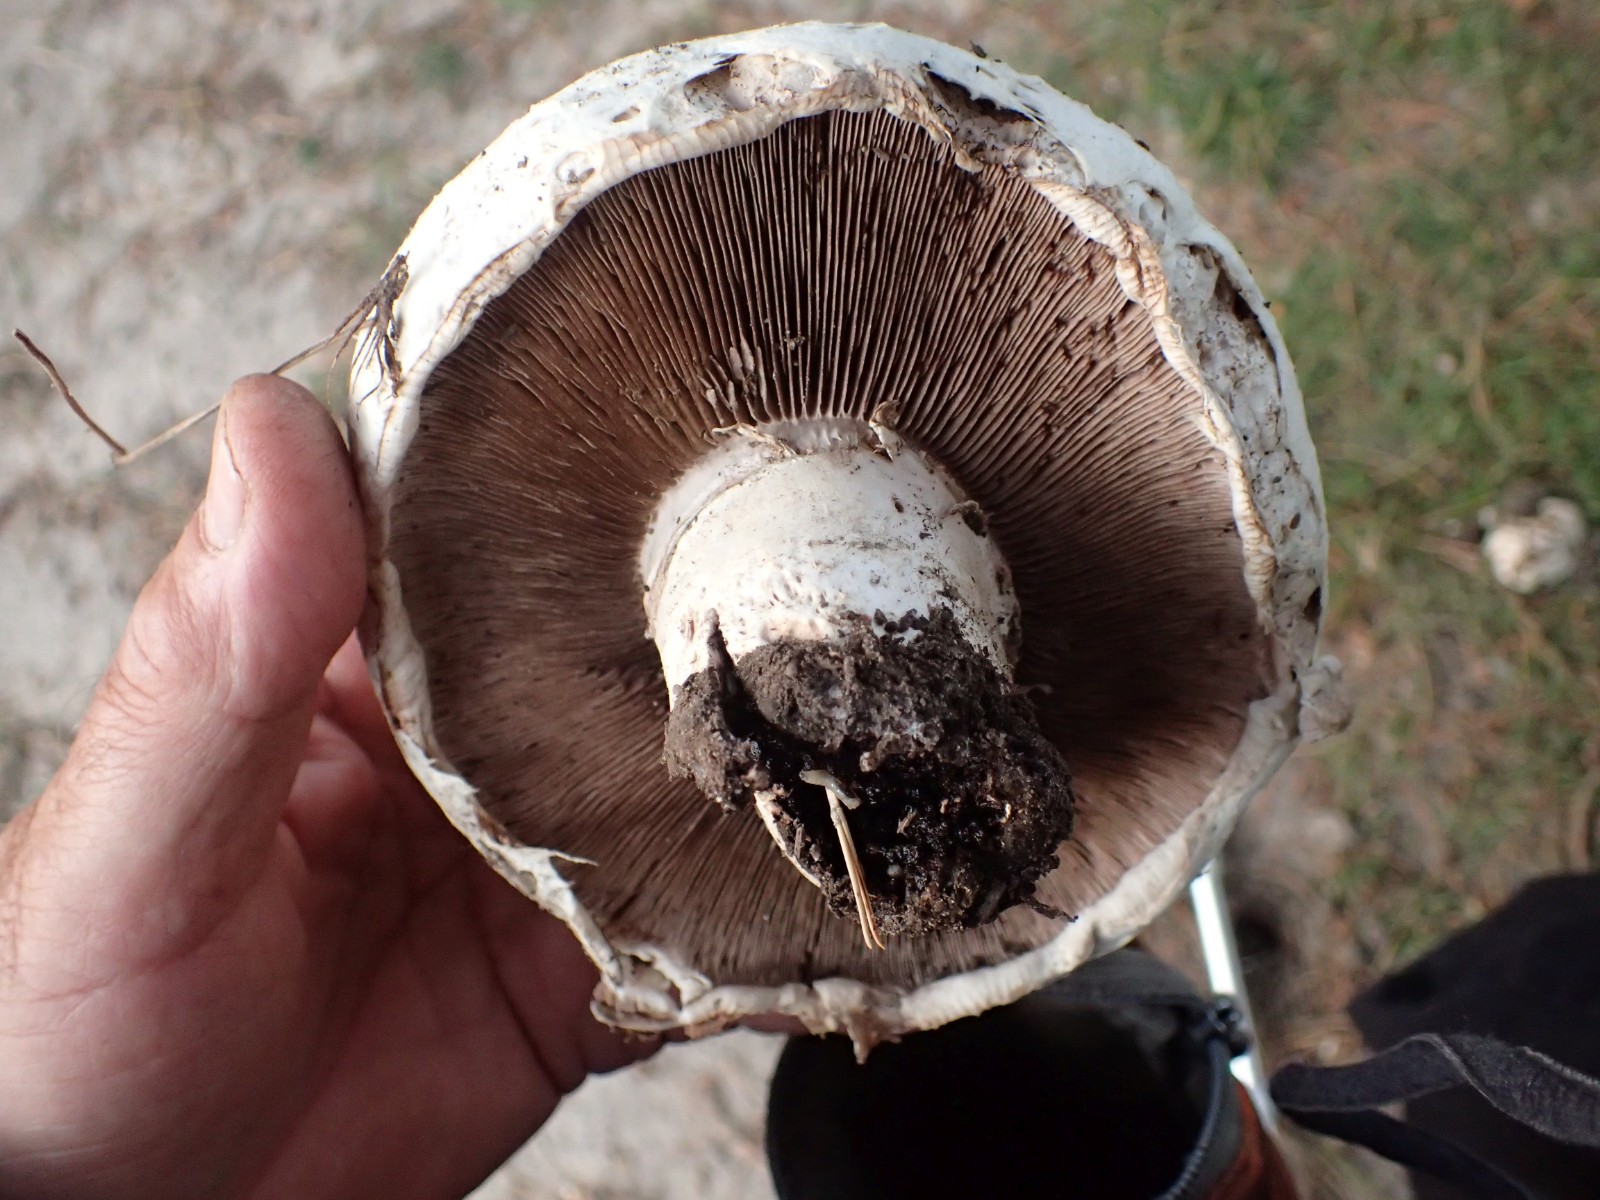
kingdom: Fungi
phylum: Basidiomycota
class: Agaricomycetes
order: Agaricales
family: Agaricaceae
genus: Agaricus
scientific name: Agaricus bernardii
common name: strandengs-champignon
